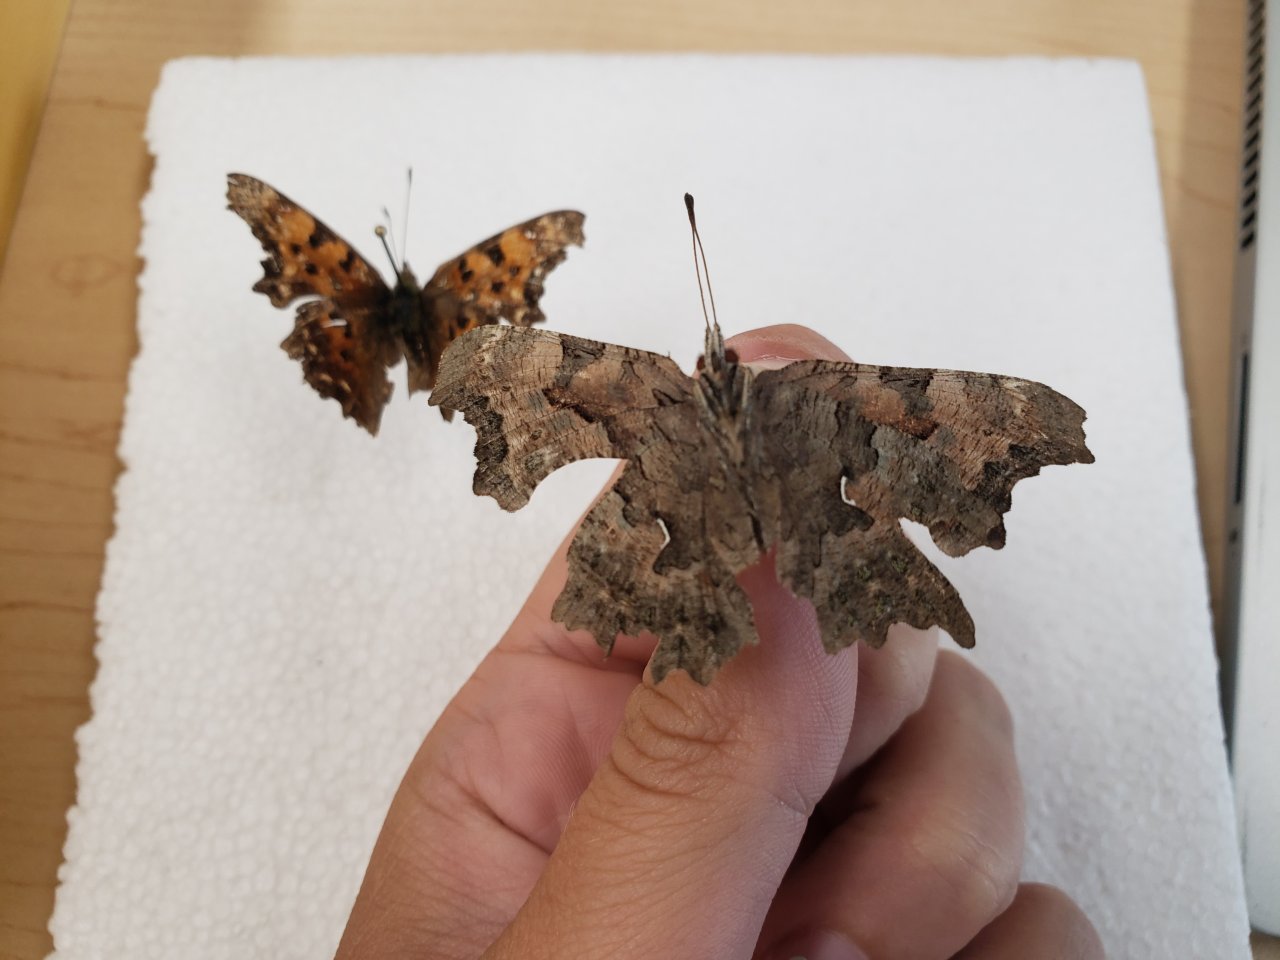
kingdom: Animalia
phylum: Arthropoda
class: Insecta
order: Lepidoptera
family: Nymphalidae
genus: Polygonia
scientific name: Polygonia faunus
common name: Green Comma
